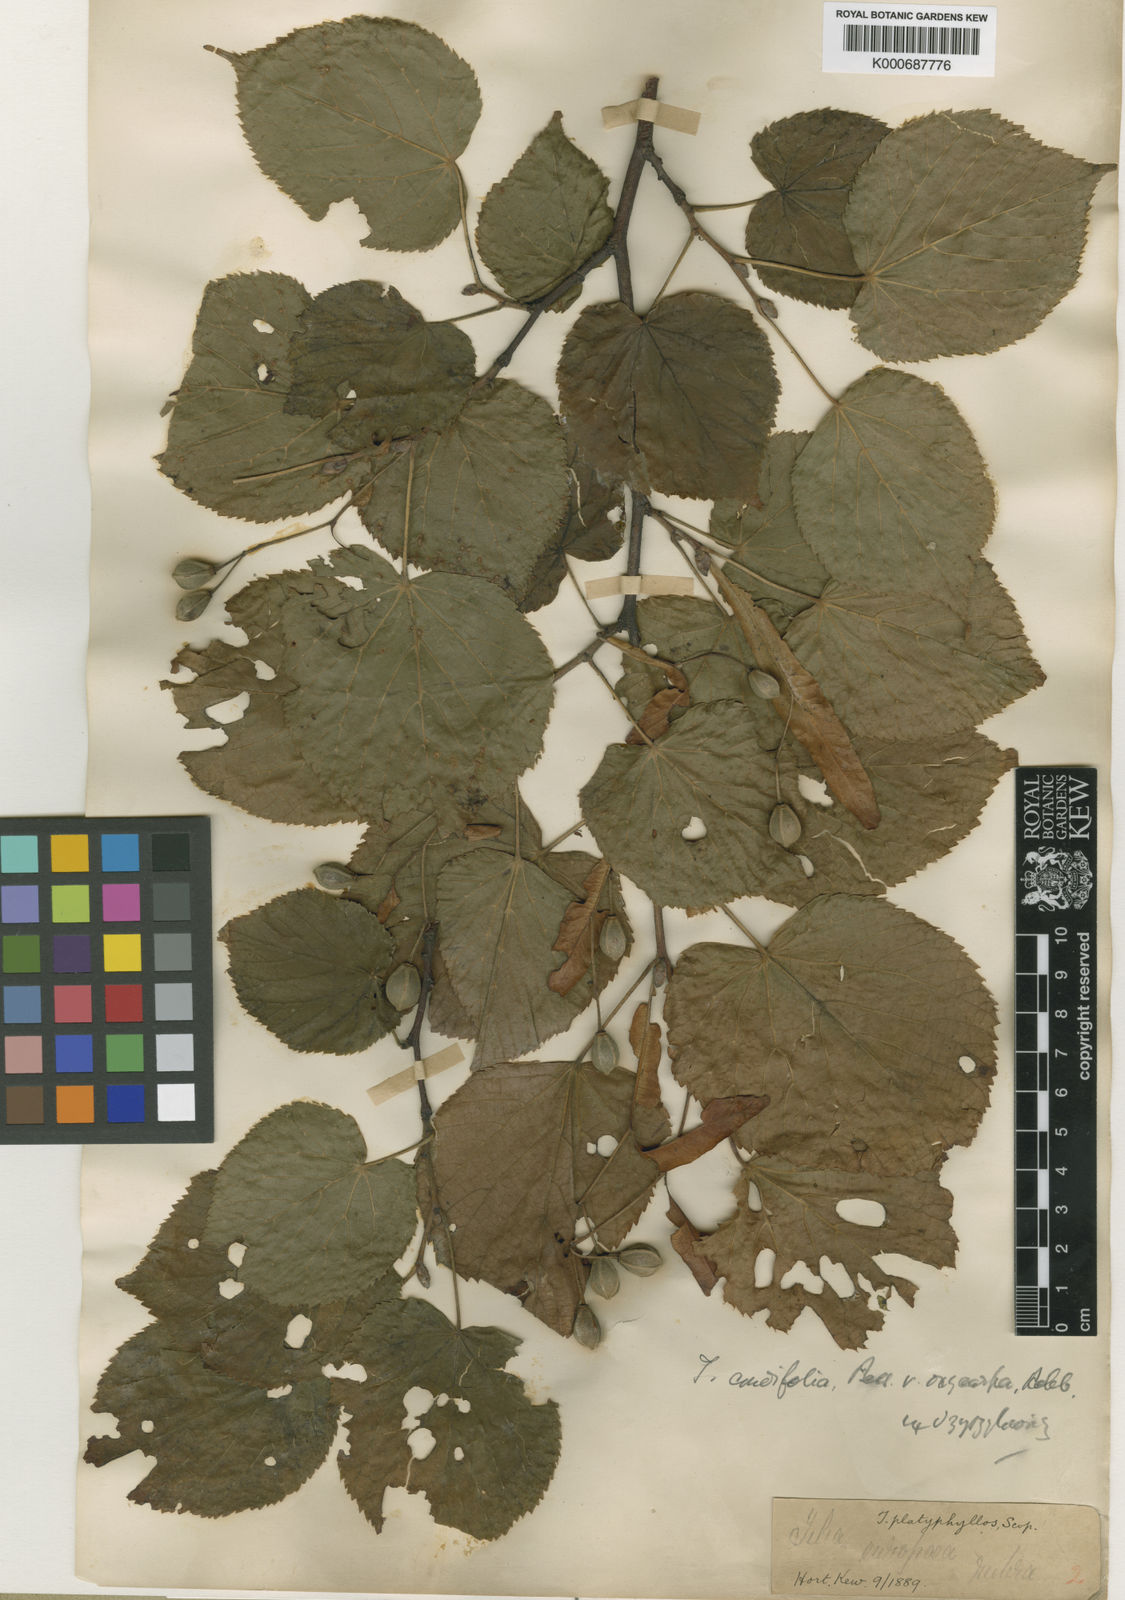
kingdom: Plantae
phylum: Tracheophyta
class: Magnoliopsida
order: Malvales
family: Malvaceae
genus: Tilia
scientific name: Tilia platyphyllos
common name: Large-leaved lime
